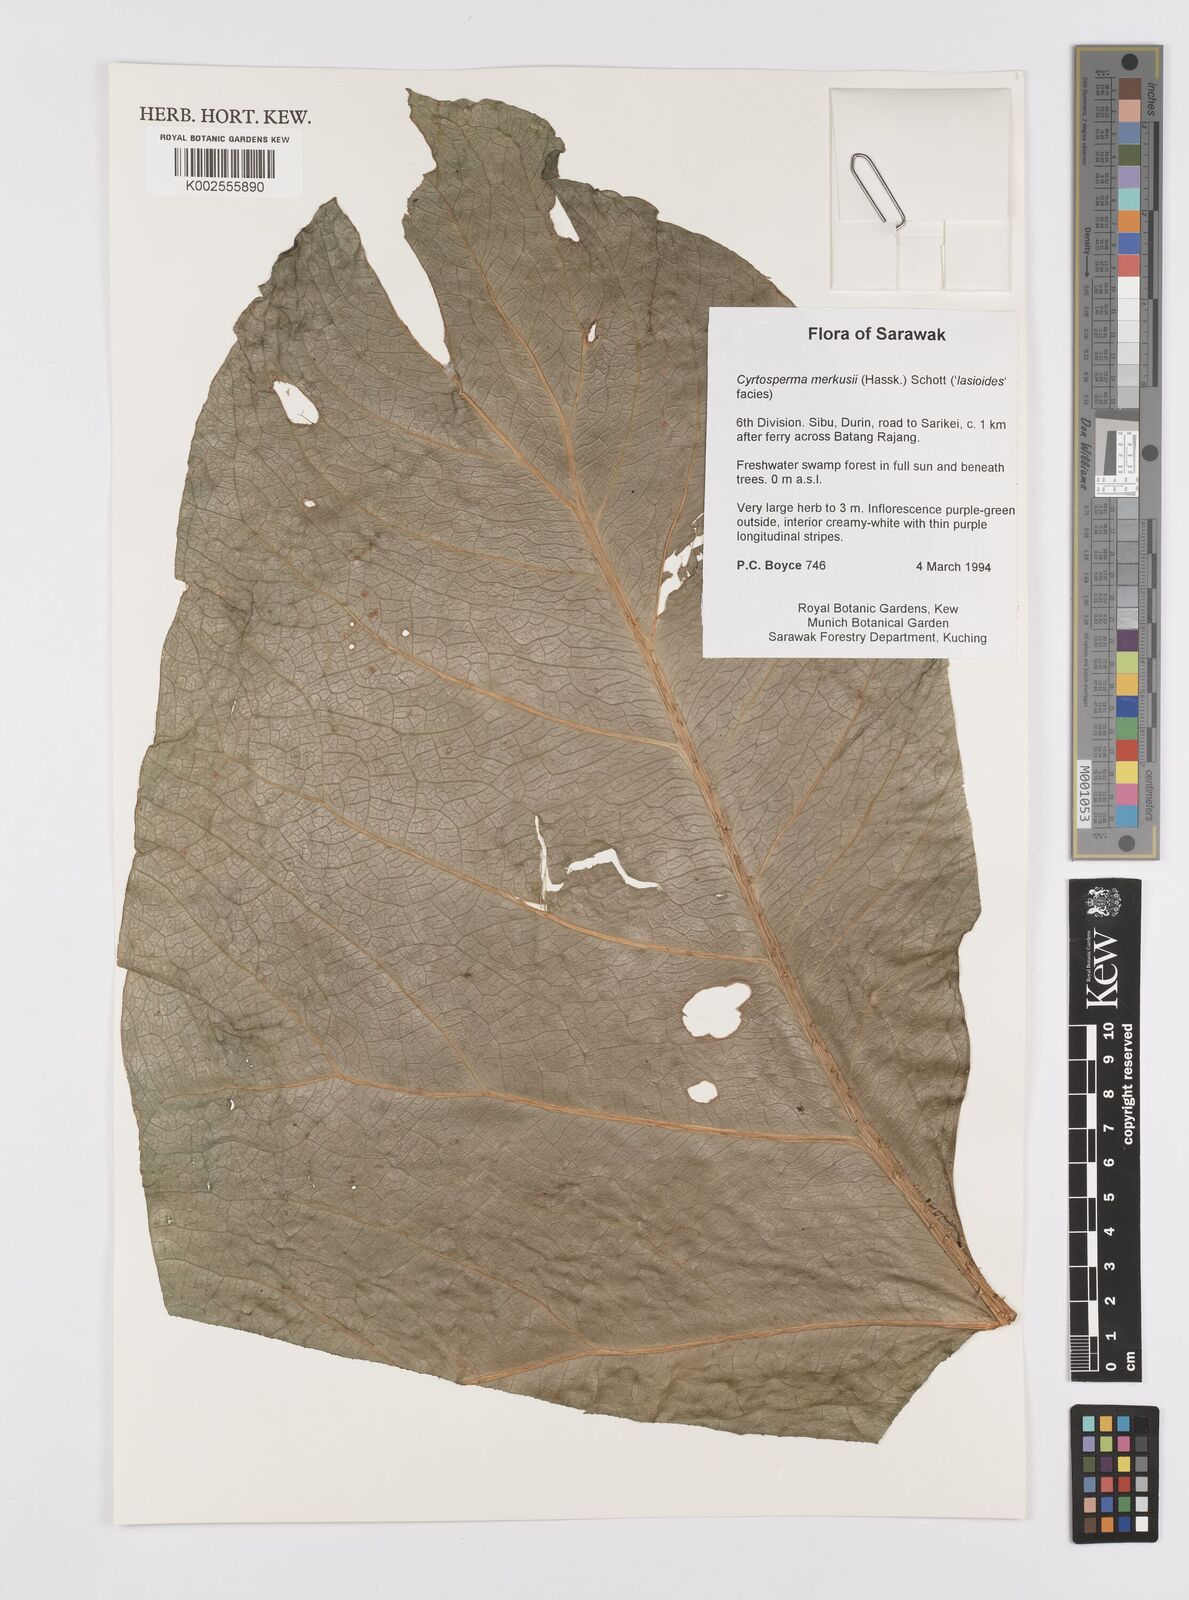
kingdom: Plantae
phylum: Tracheophyta
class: Liliopsida
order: Alismatales
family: Araceae
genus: Cyrtosperma
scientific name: Cyrtosperma merkusii
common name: Giant swamp-taro
